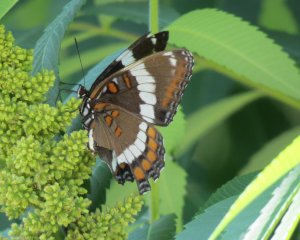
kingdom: Animalia
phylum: Arthropoda
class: Insecta
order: Lepidoptera
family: Nymphalidae
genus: Limenitis
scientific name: Limenitis arthemis
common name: Red-spotted Admiral
